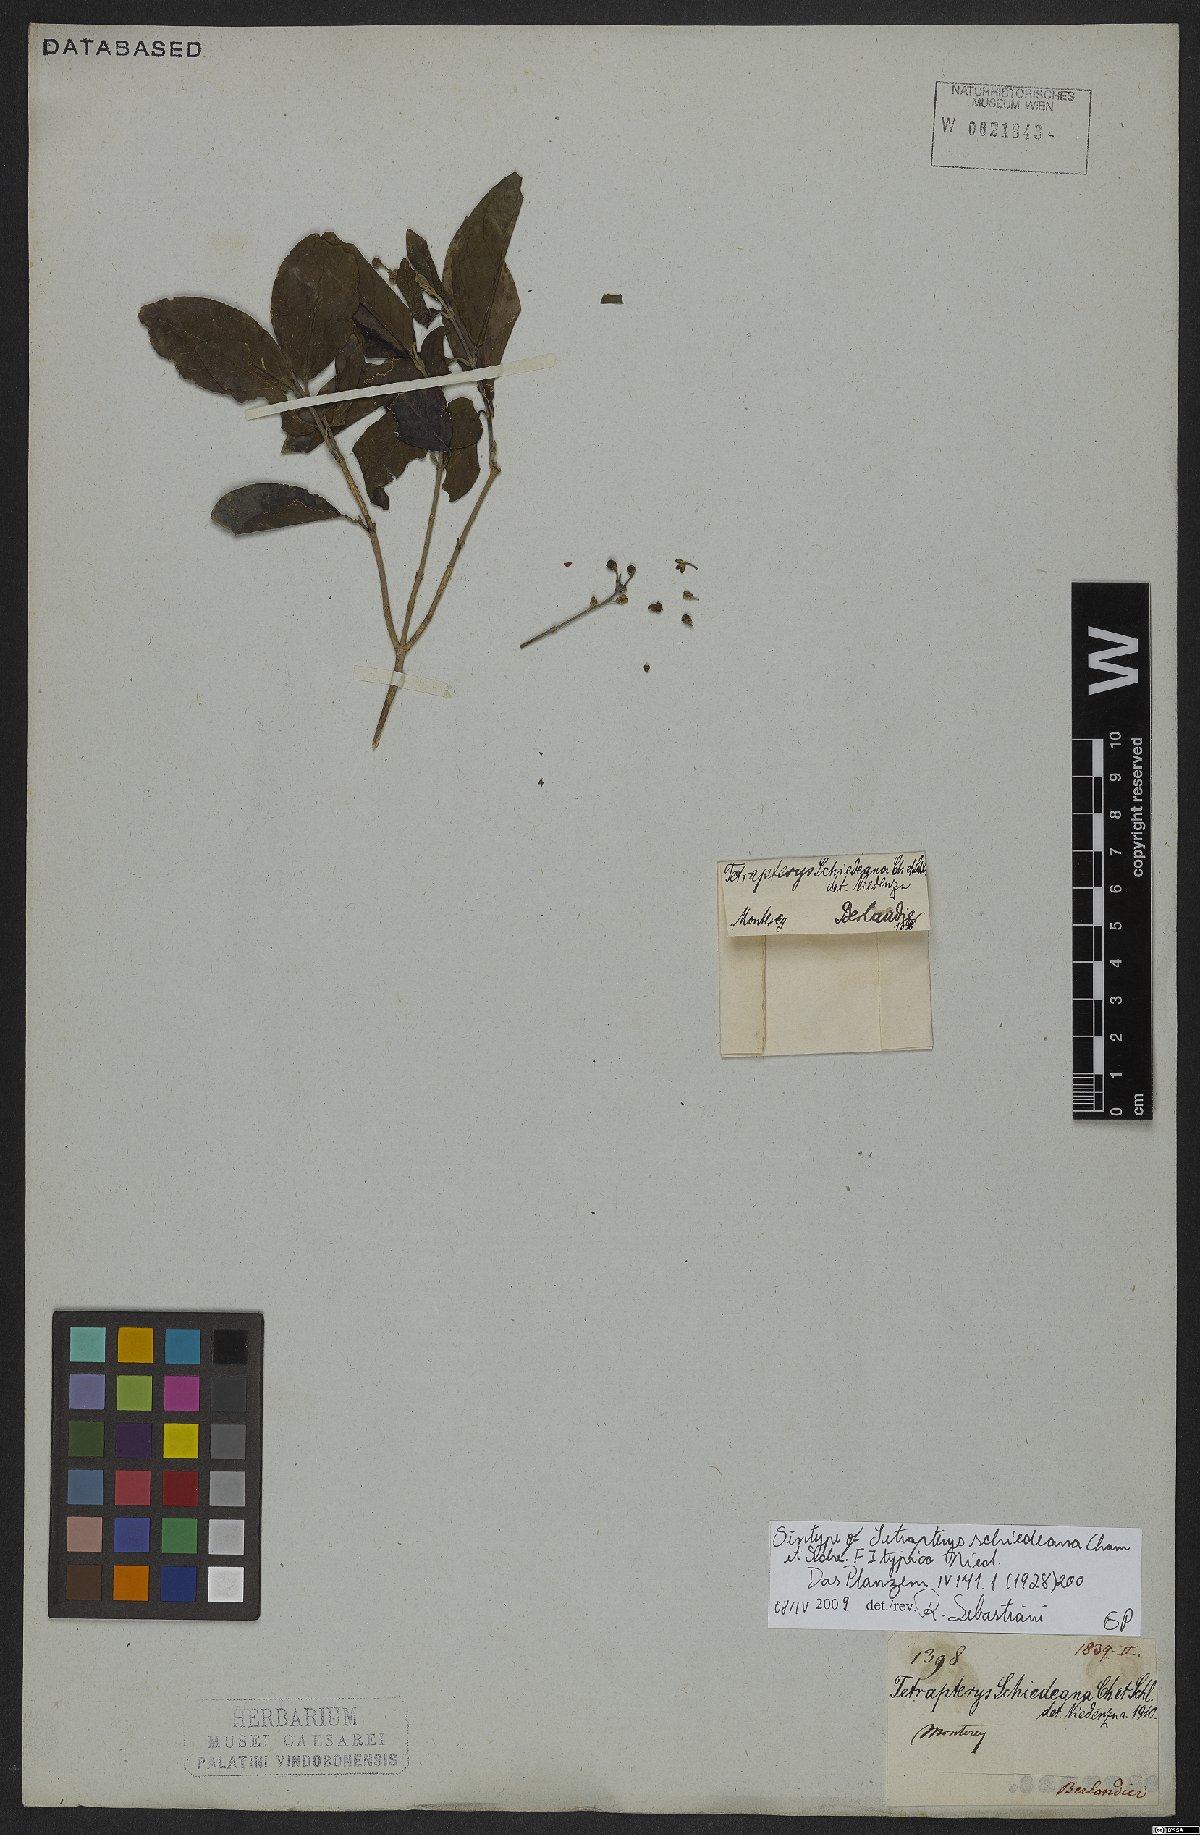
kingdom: Plantae
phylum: Tracheophyta
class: Magnoliopsida
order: Malpighiales
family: Malpighiaceae
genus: Tetrapterys
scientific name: Tetrapterys schiedeana
